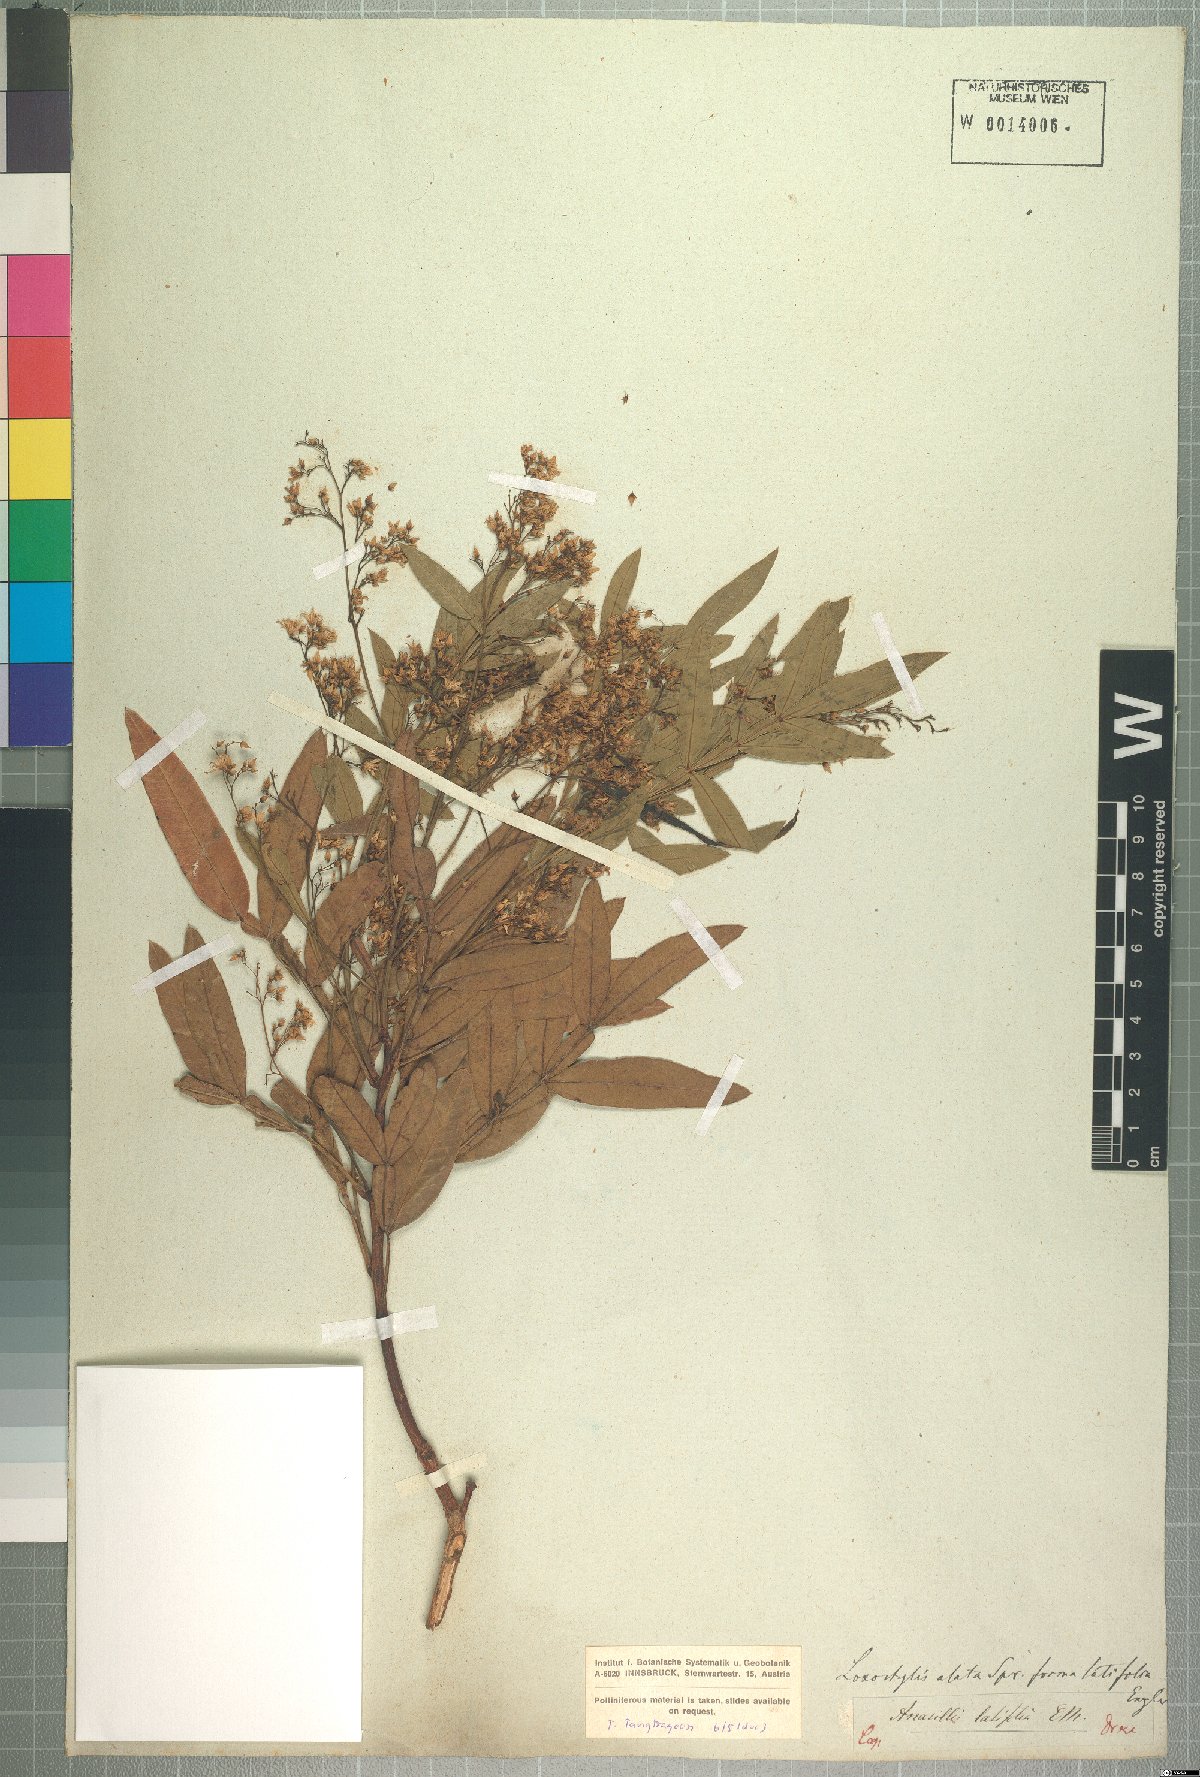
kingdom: Plantae
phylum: Tracheophyta
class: Magnoliopsida
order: Sapindales
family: Anacardiaceae
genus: Loxostylis
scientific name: Loxostylis alata
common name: Wild peppertree
